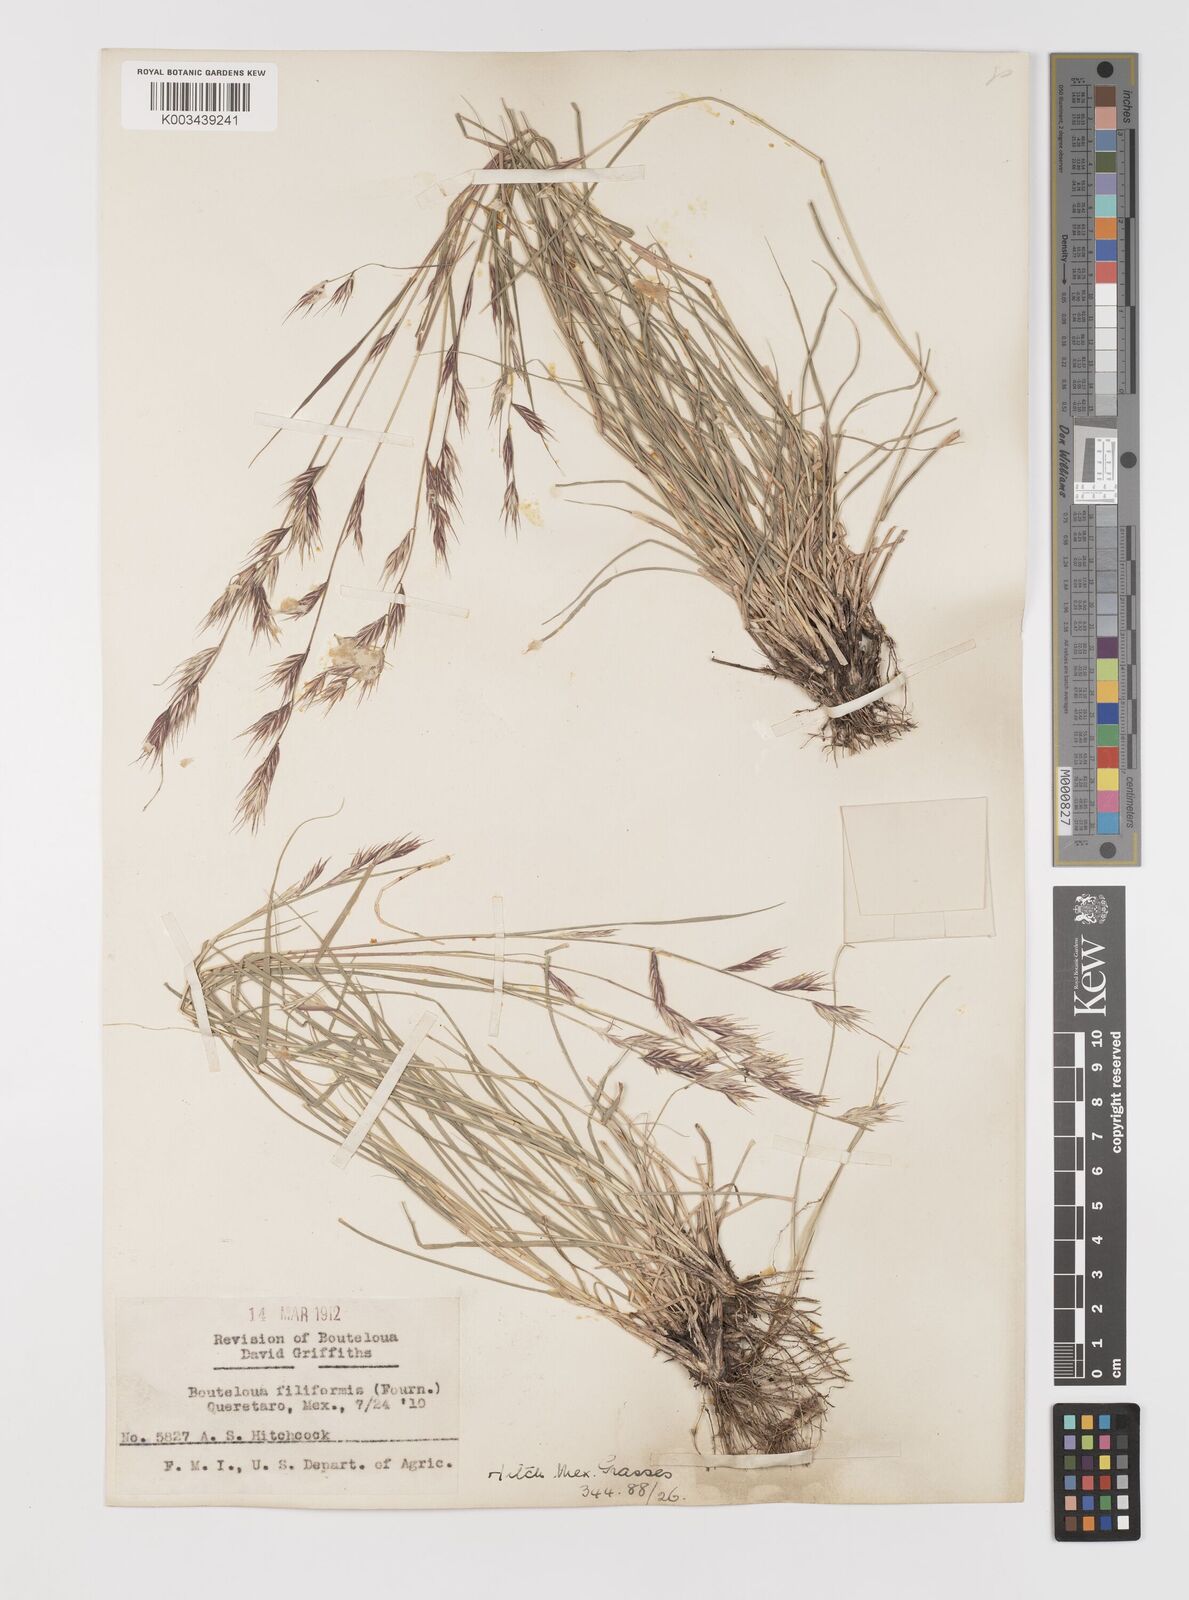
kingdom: Plantae
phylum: Tracheophyta
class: Liliopsida
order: Poales
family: Poaceae
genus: Bouteloua
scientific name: Bouteloua repens
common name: Slender grama
